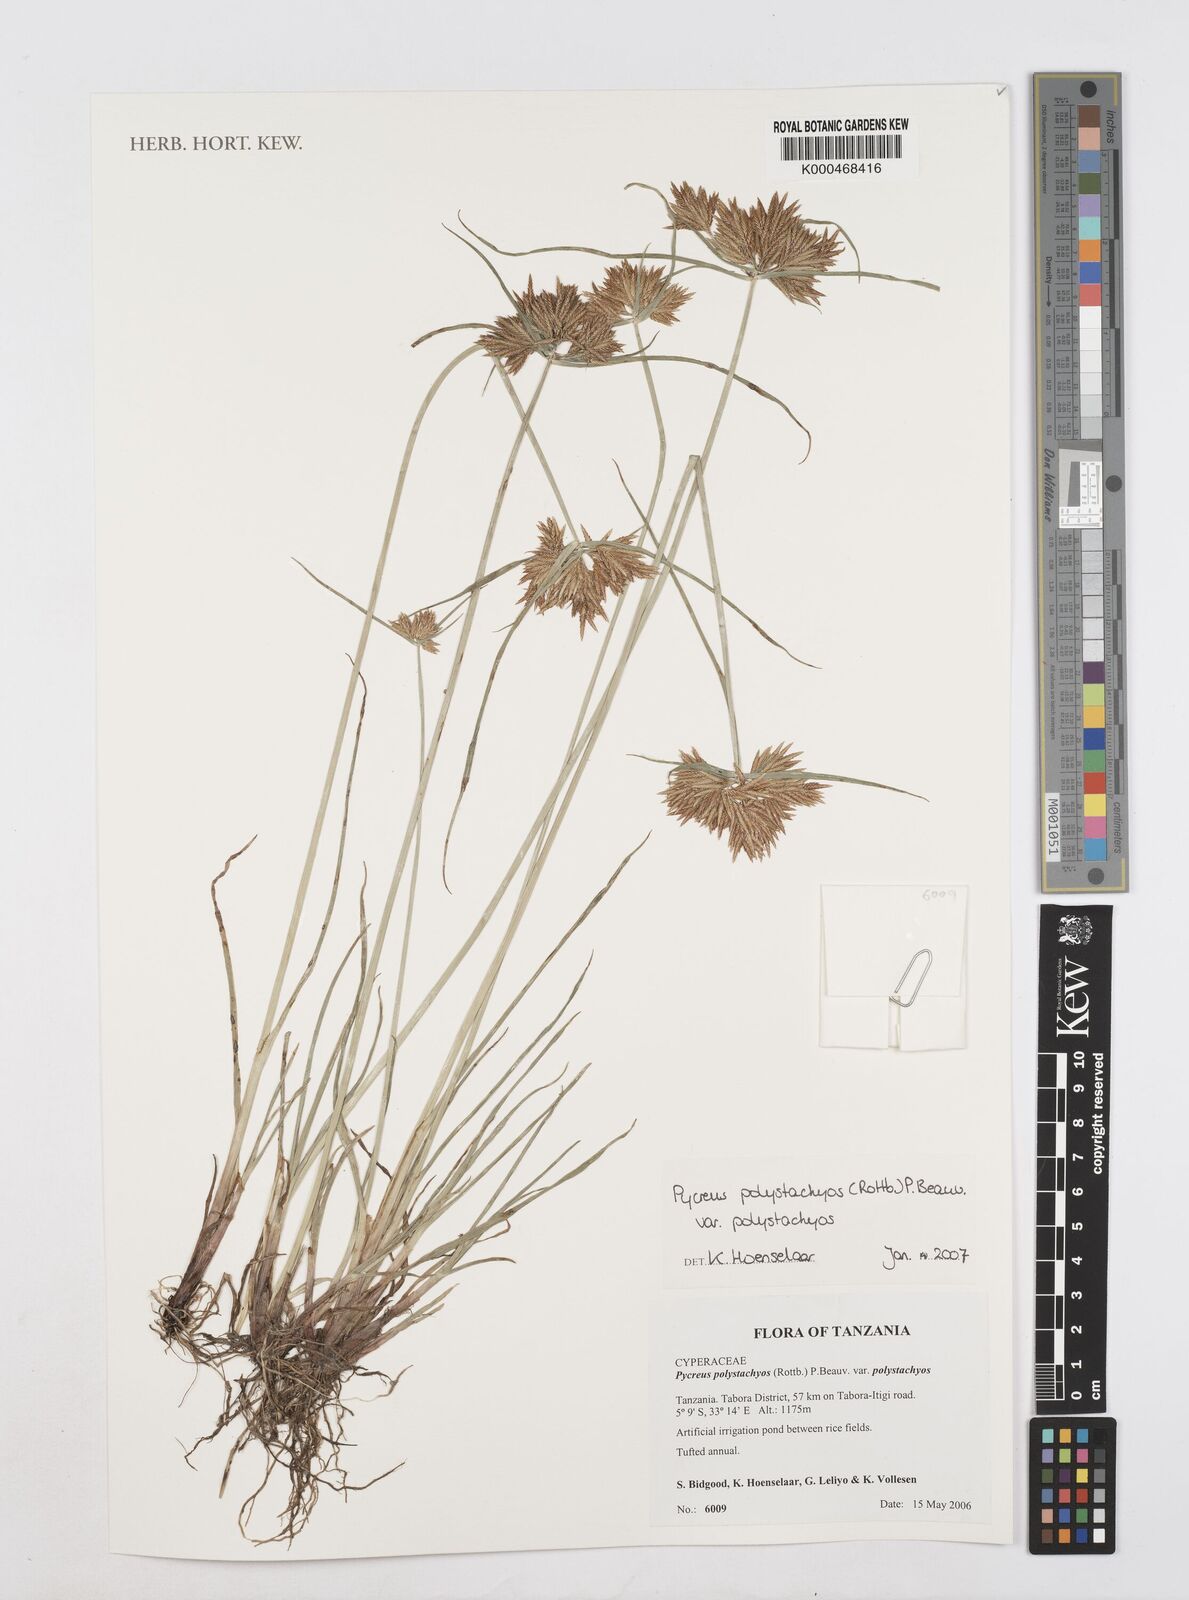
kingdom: Plantae
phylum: Tracheophyta
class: Liliopsida
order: Poales
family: Cyperaceae
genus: Cyperus
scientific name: Cyperus polystachyos
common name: Bunchy flat sedge
